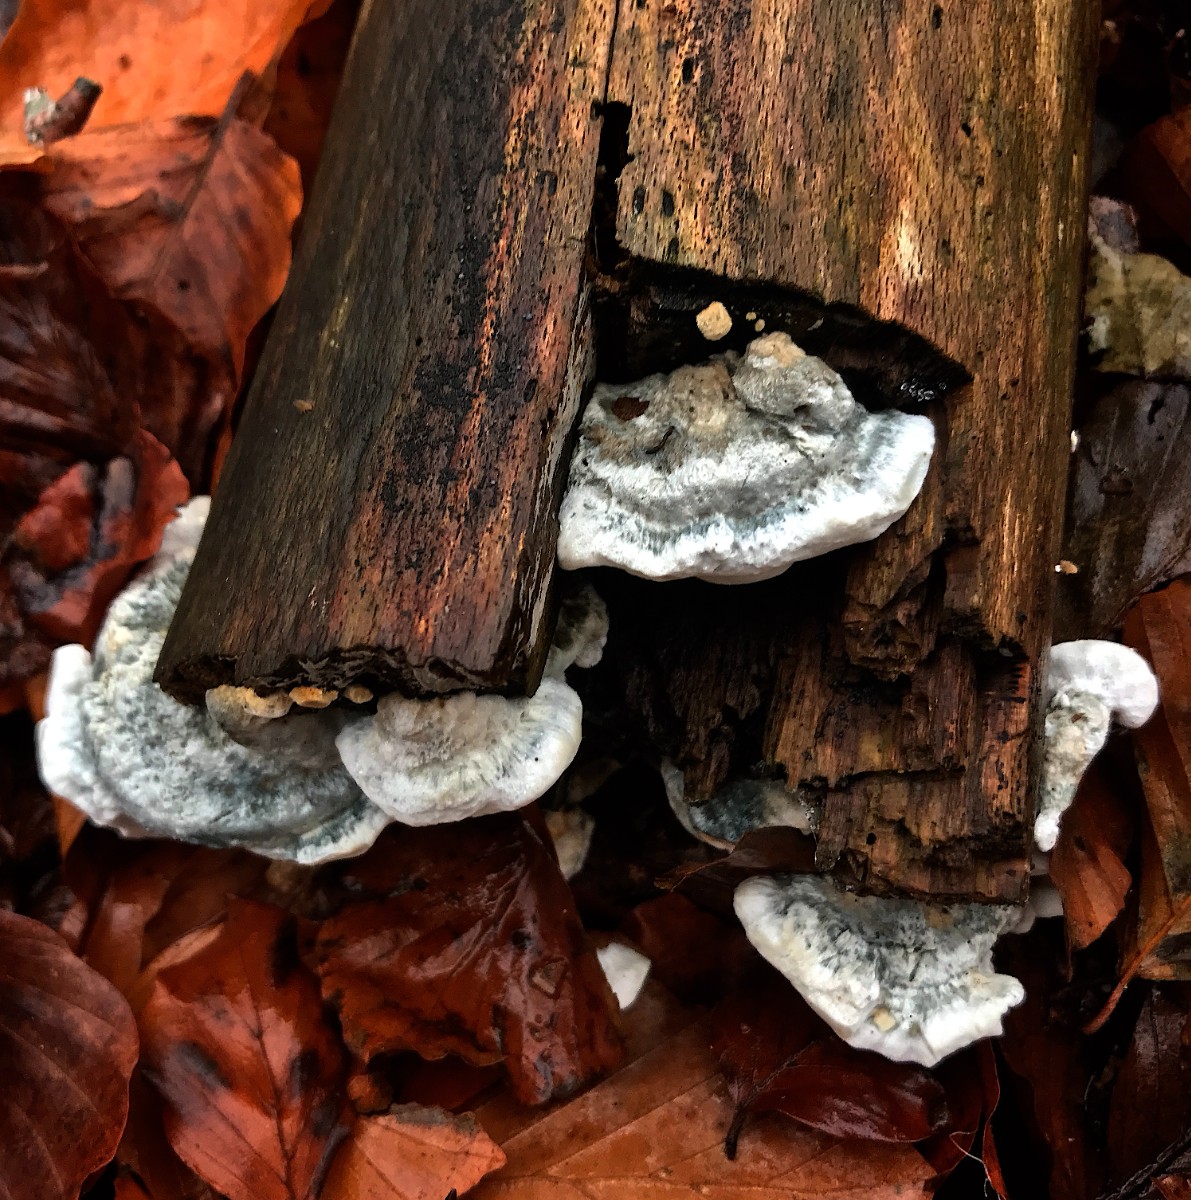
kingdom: Fungi
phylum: Basidiomycota
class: Agaricomycetes
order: Polyporales
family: Polyporaceae
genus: Cyanosporus
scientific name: Cyanosporus caesius
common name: blålig kødporesvamp
